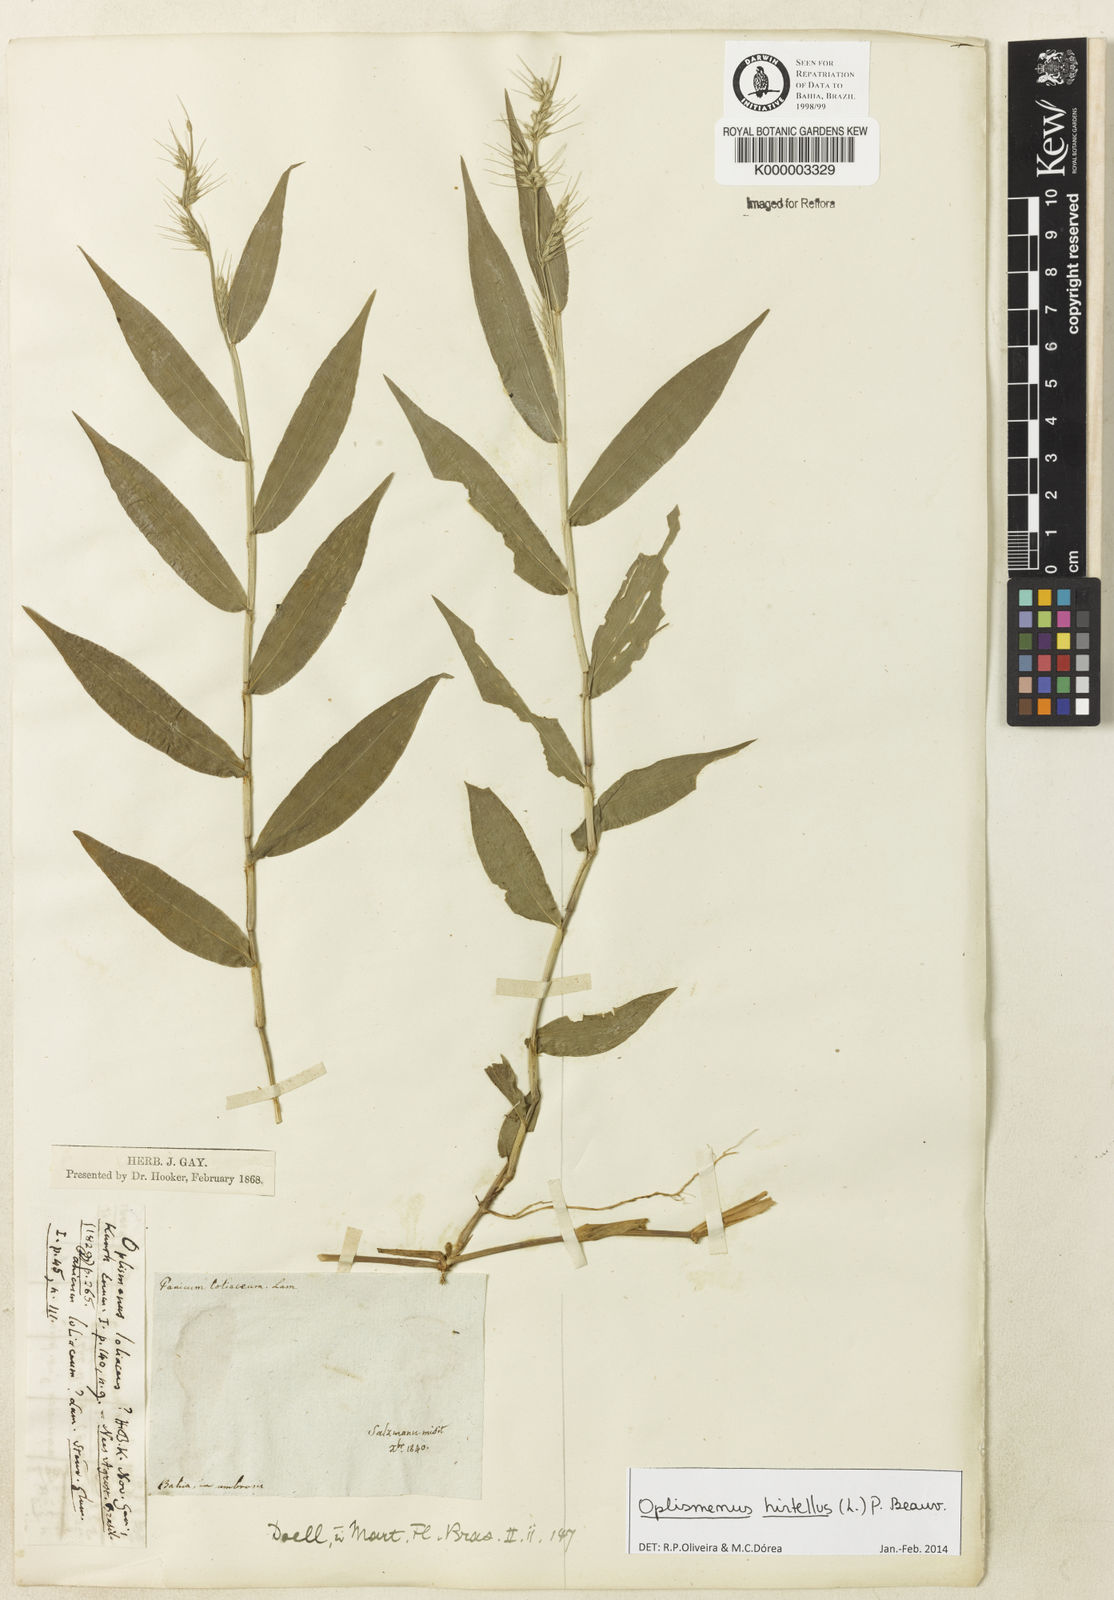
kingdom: Plantae
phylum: Tracheophyta
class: Liliopsida
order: Poales
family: Poaceae
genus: Oplismenus
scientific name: Oplismenus hirtellus
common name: Basketgrass
